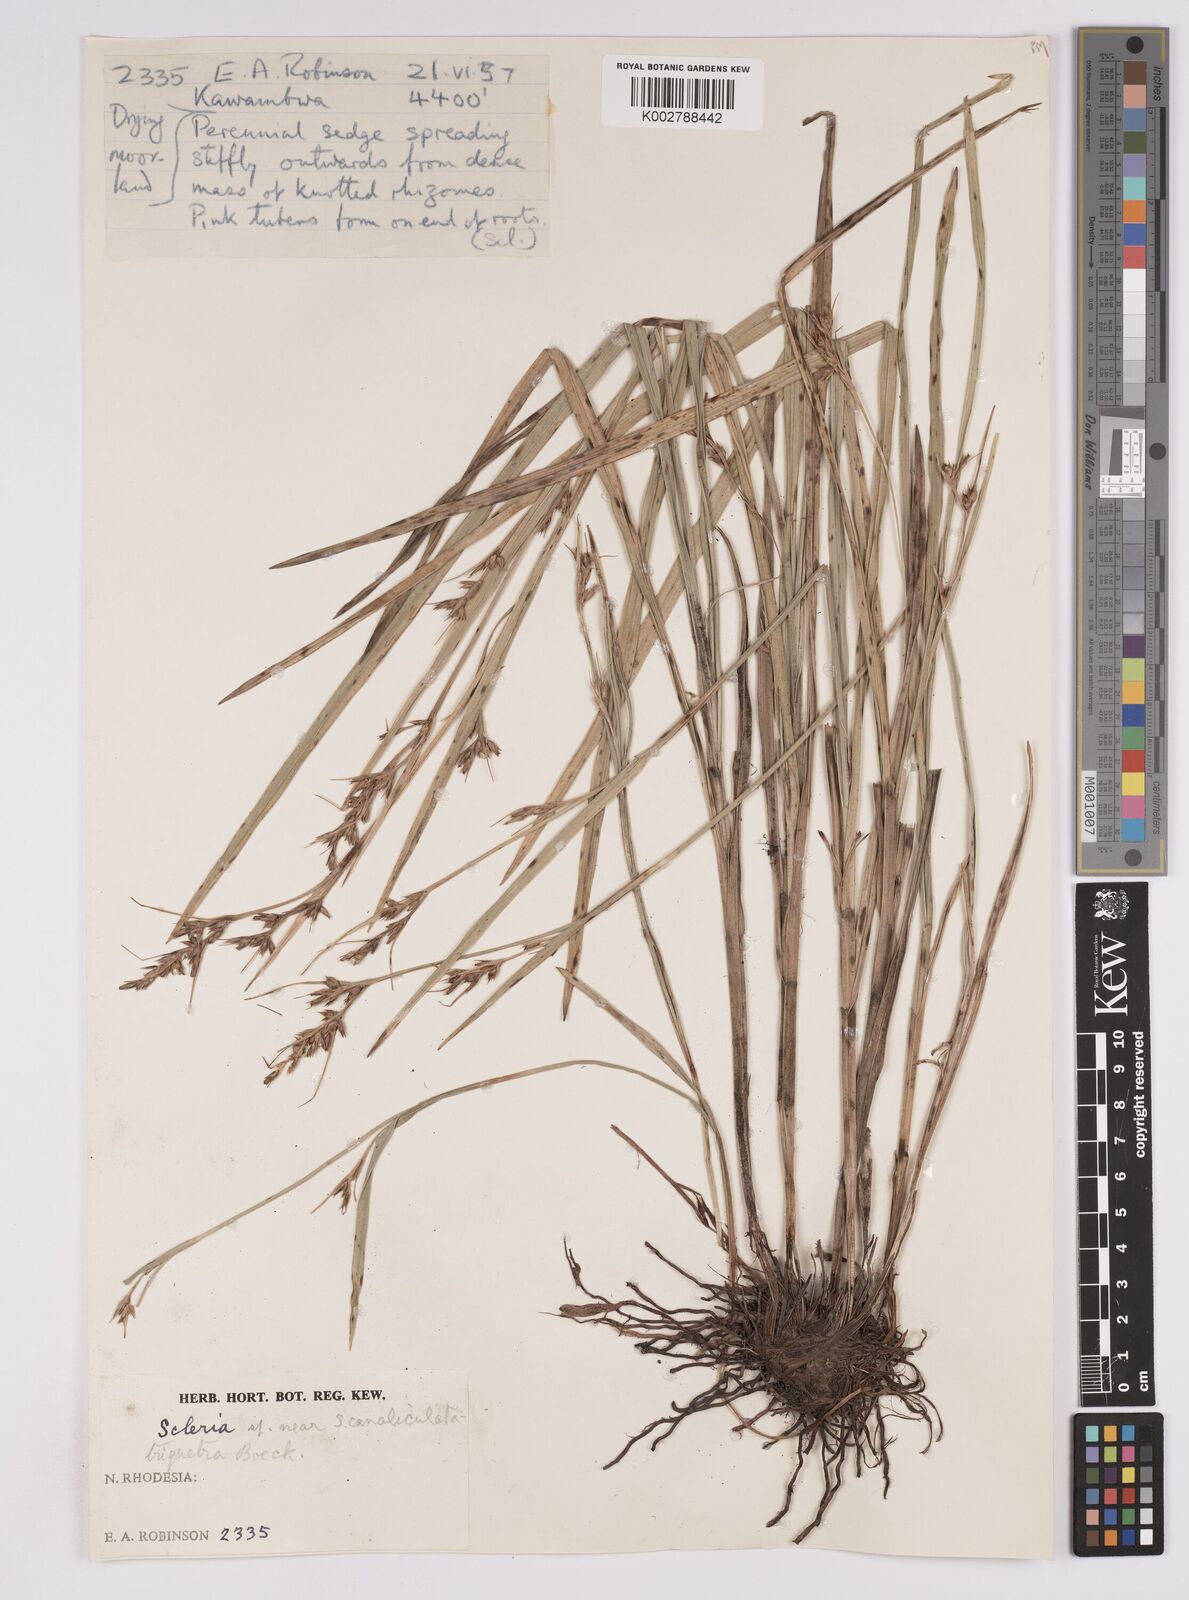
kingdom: Plantae
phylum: Tracheophyta
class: Liliopsida
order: Poales
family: Cyperaceae
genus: Scleria
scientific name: Scleria adpressohirta
